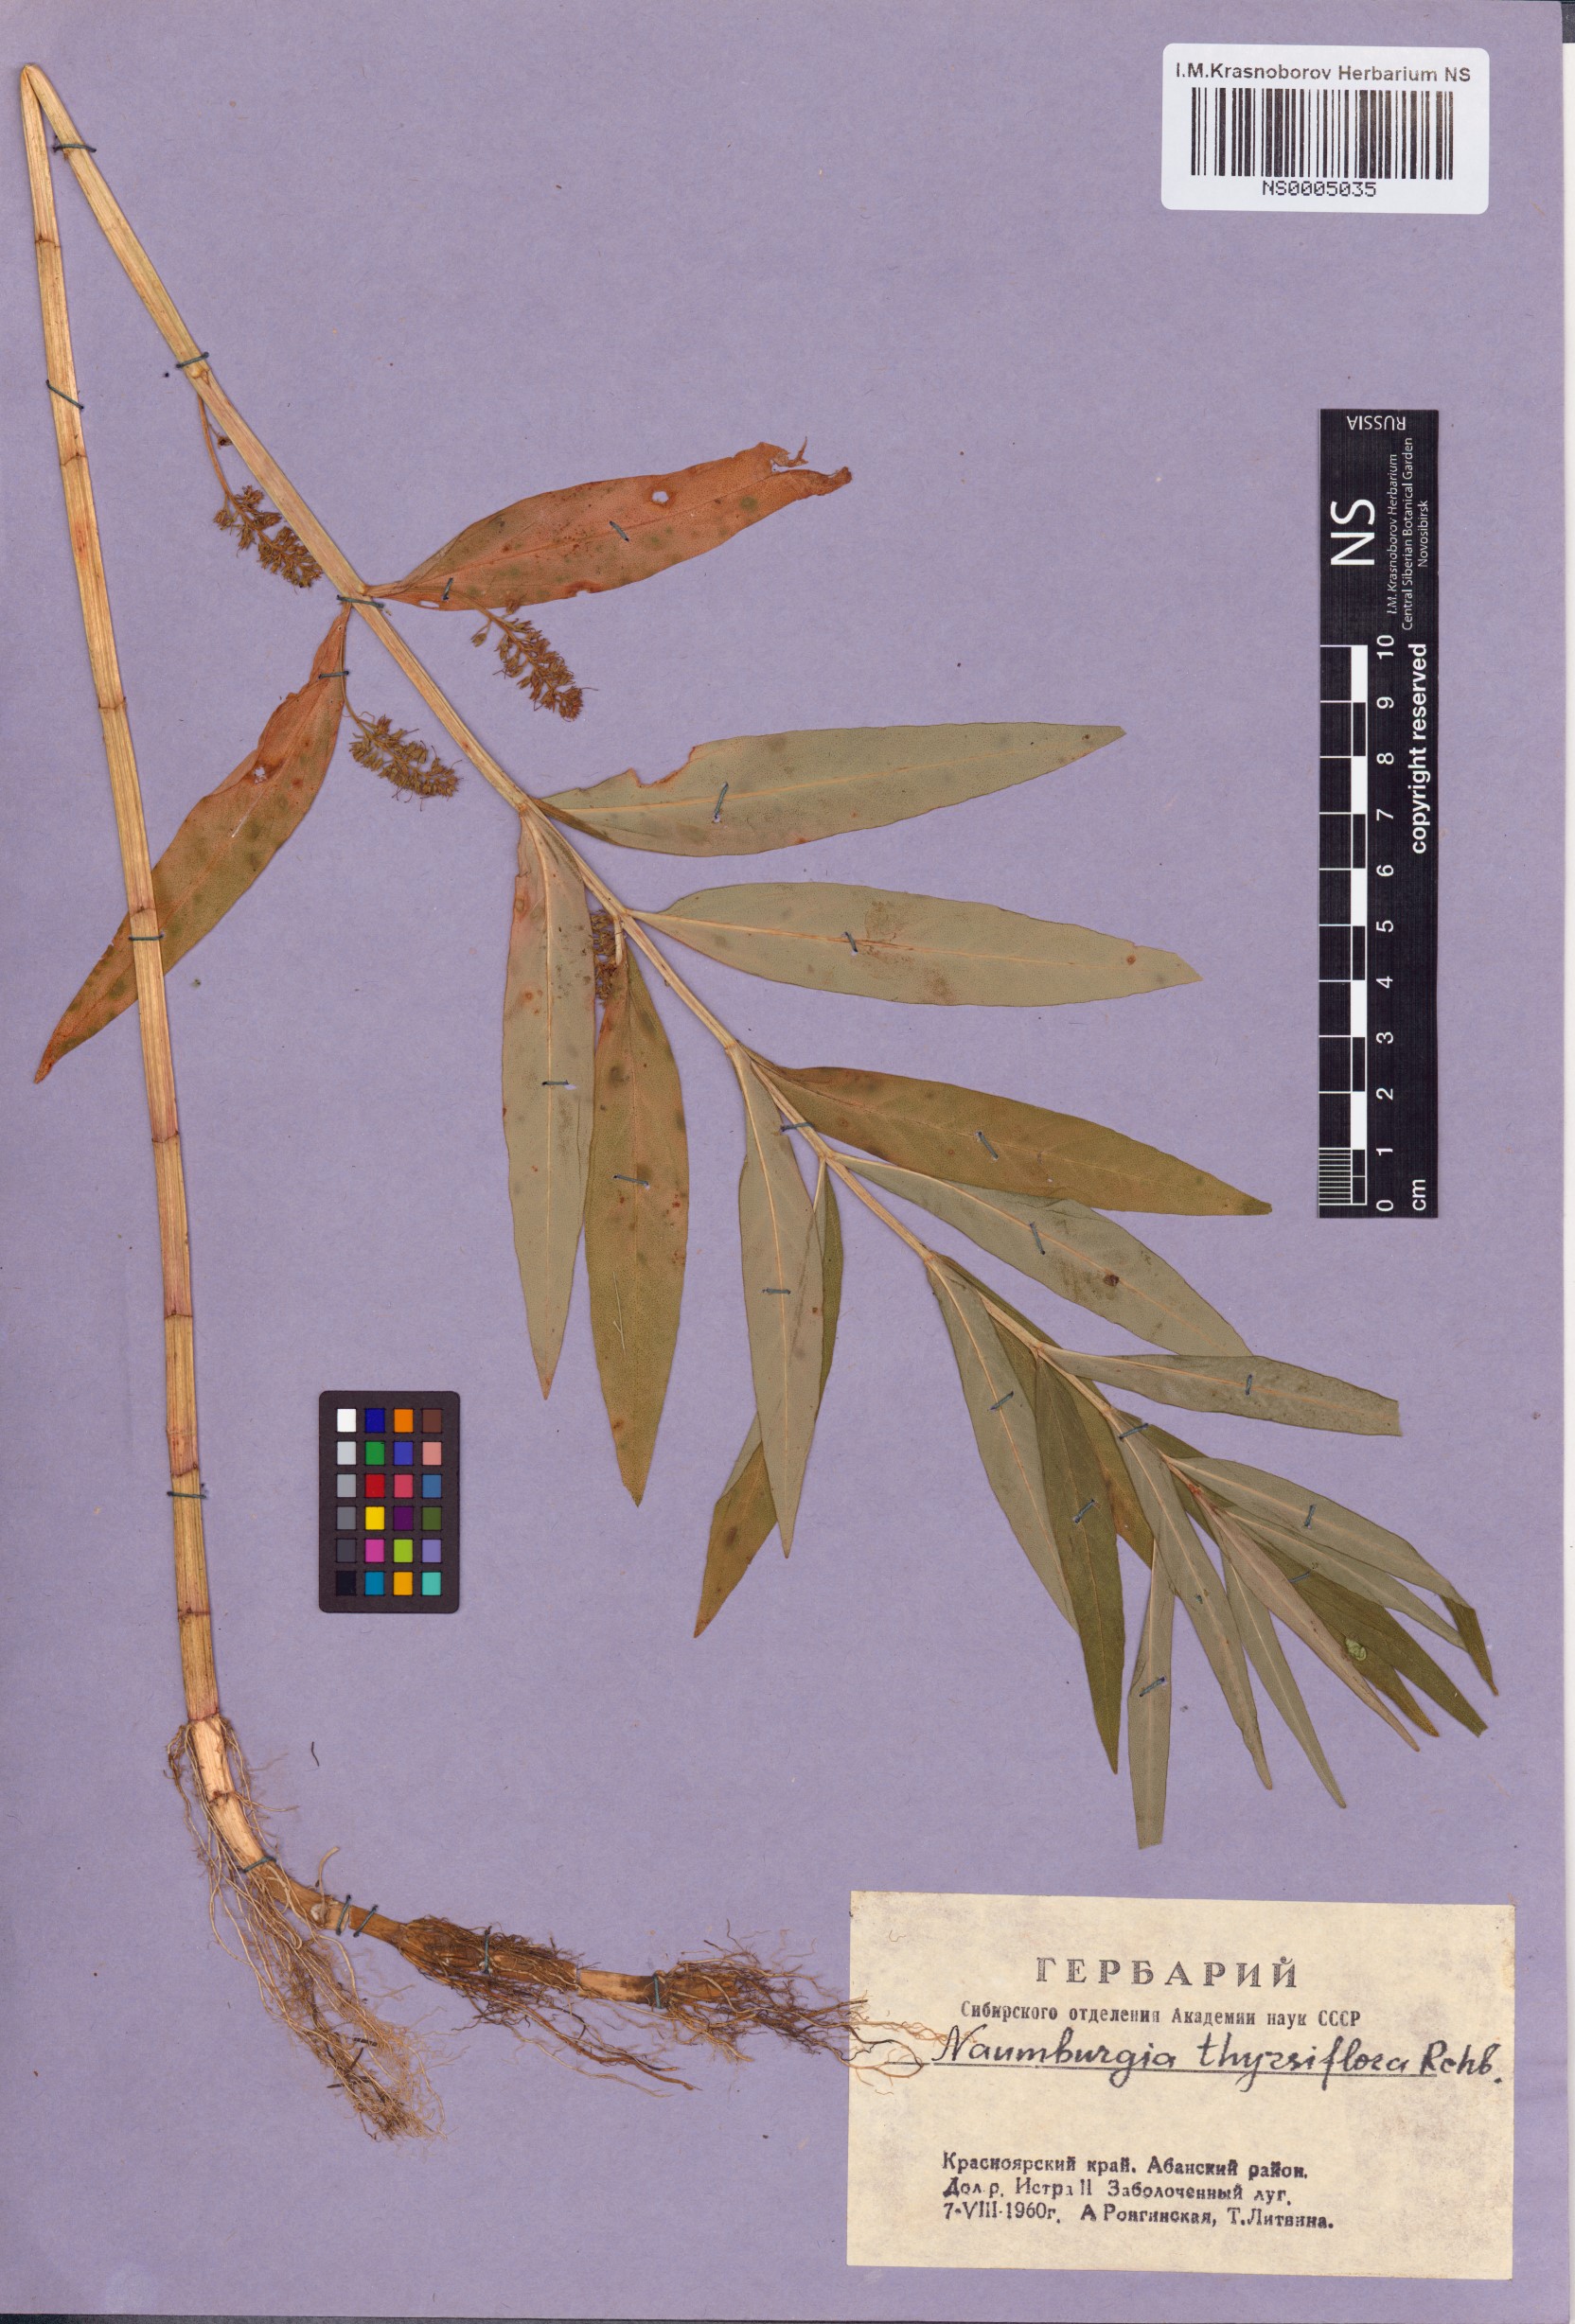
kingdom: Plantae
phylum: Tracheophyta
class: Magnoliopsida
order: Ericales
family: Primulaceae
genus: Lysimachia
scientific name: Lysimachia thyrsiflora
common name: Tufted loosestrife
